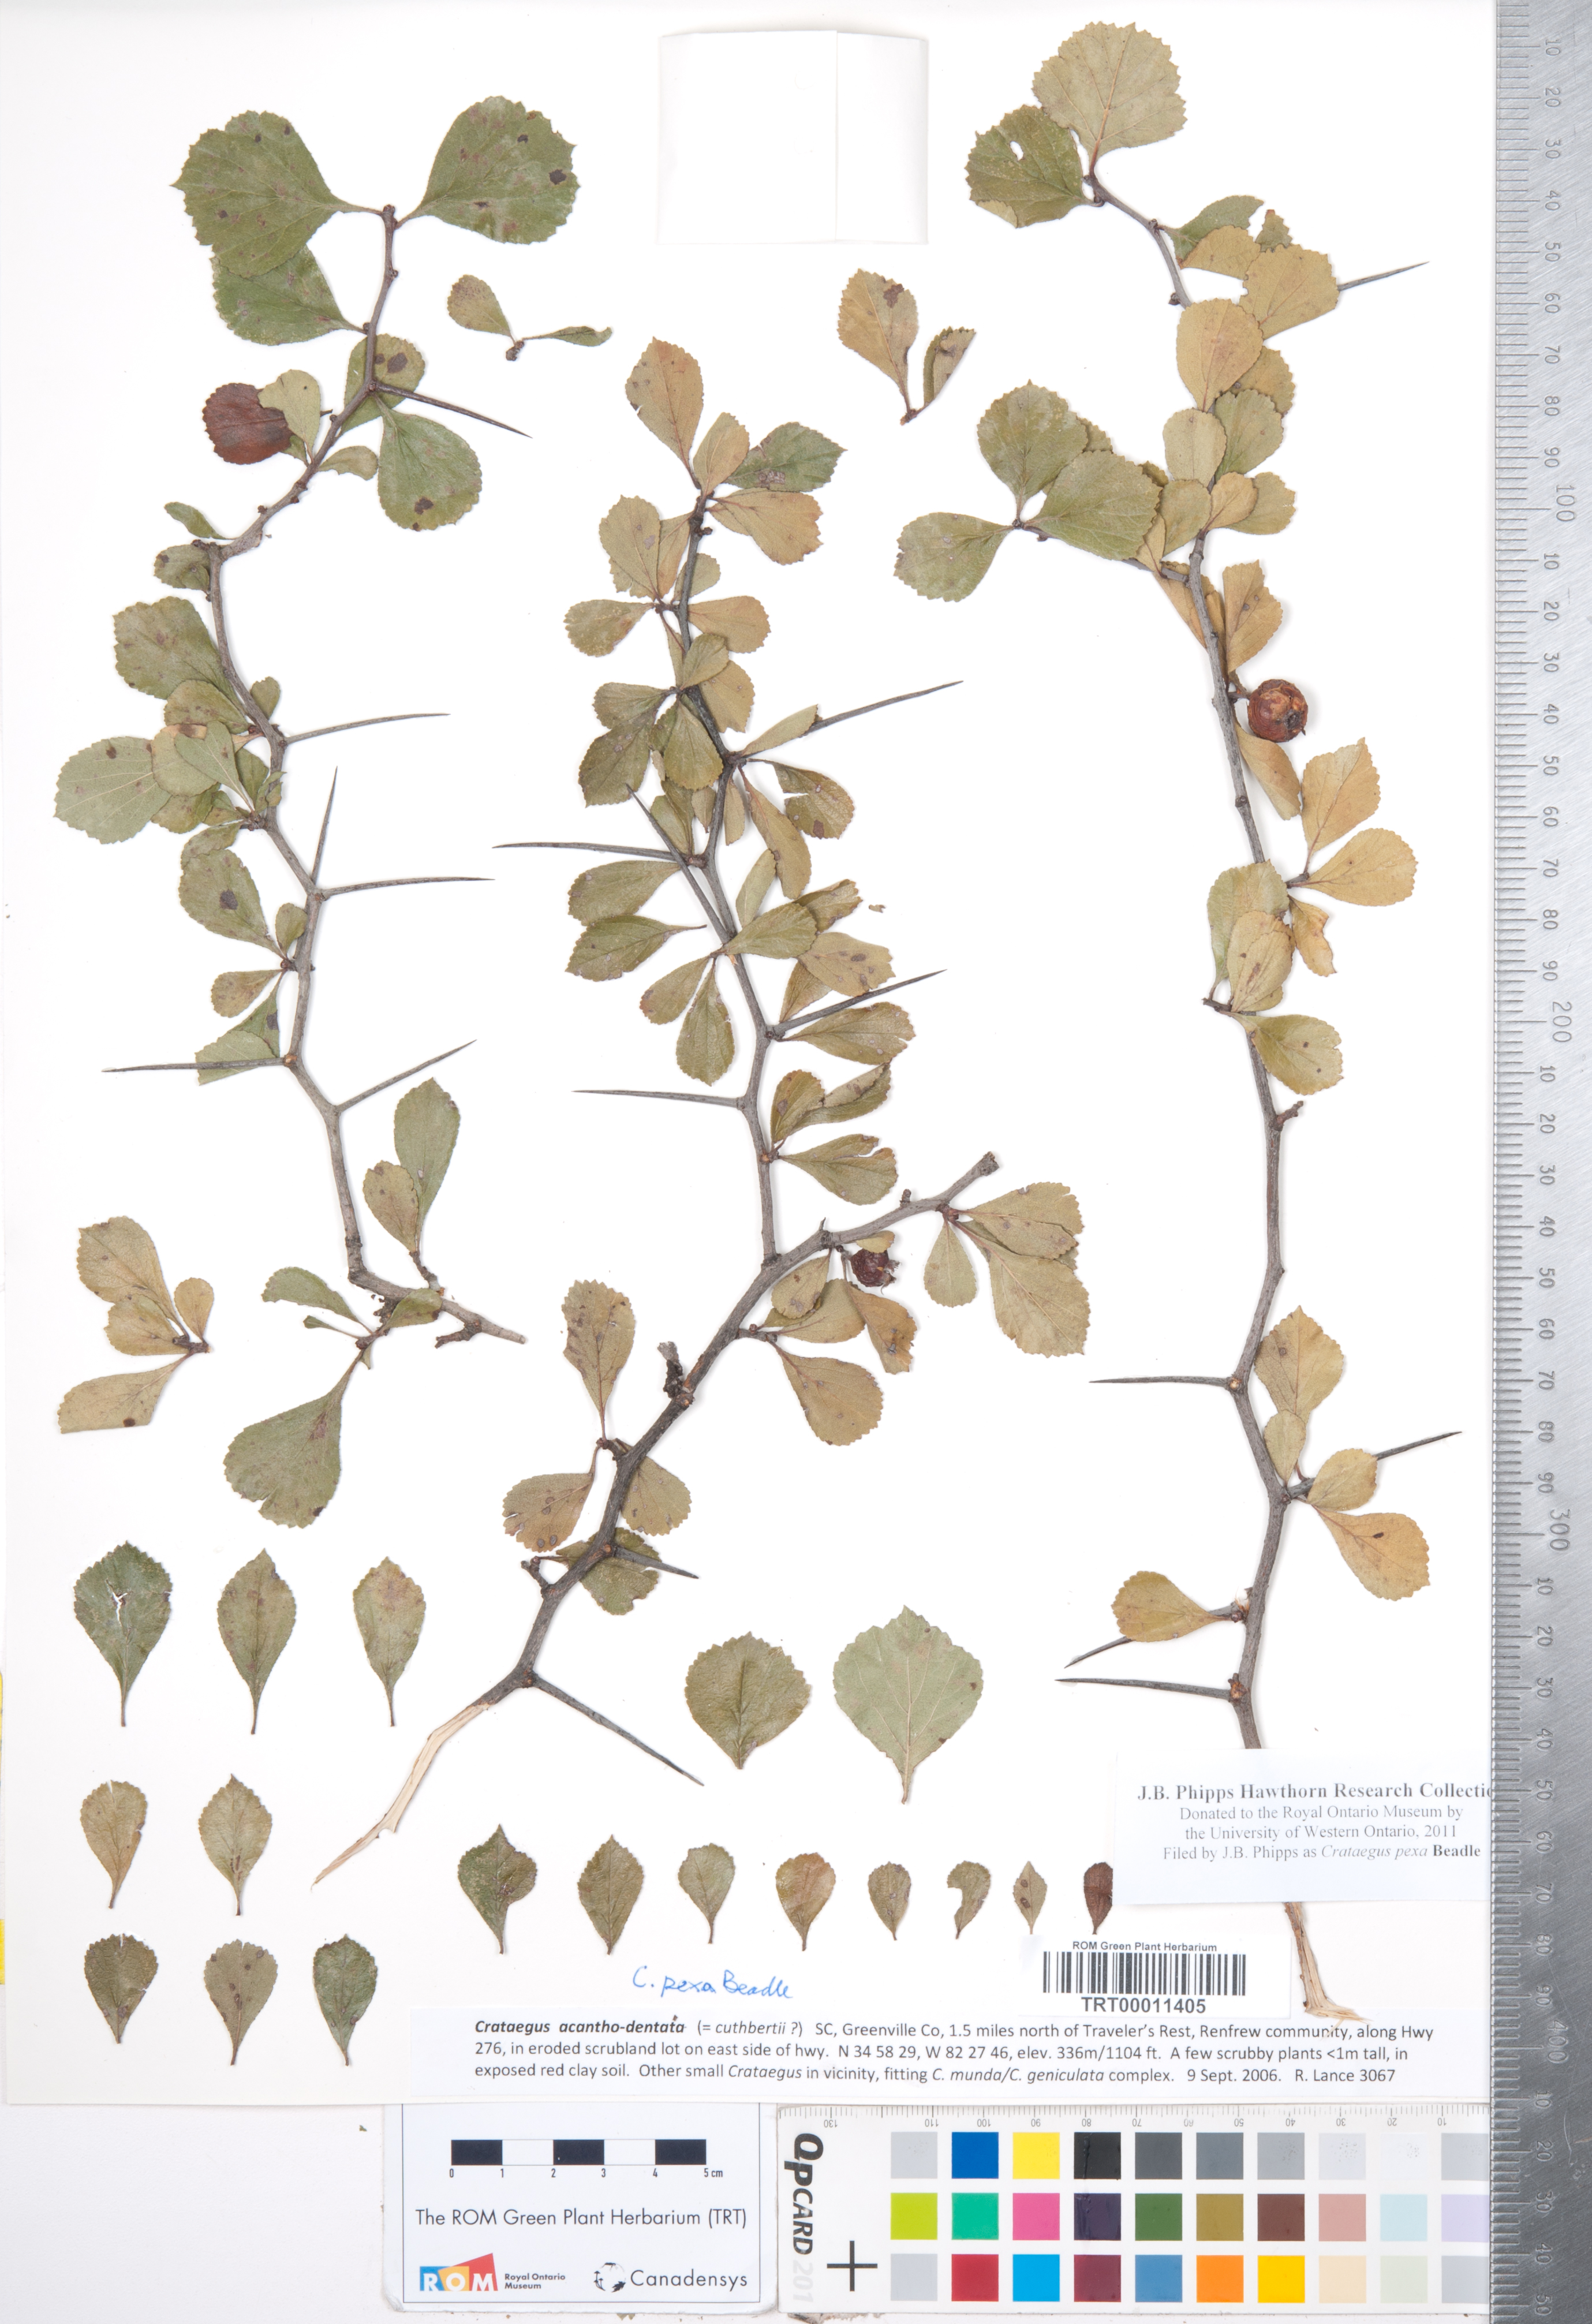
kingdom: Plantae
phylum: Tracheophyta
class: Magnoliopsida
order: Rosales
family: Rosaceae
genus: Crataegus
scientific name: Crataegus munda
